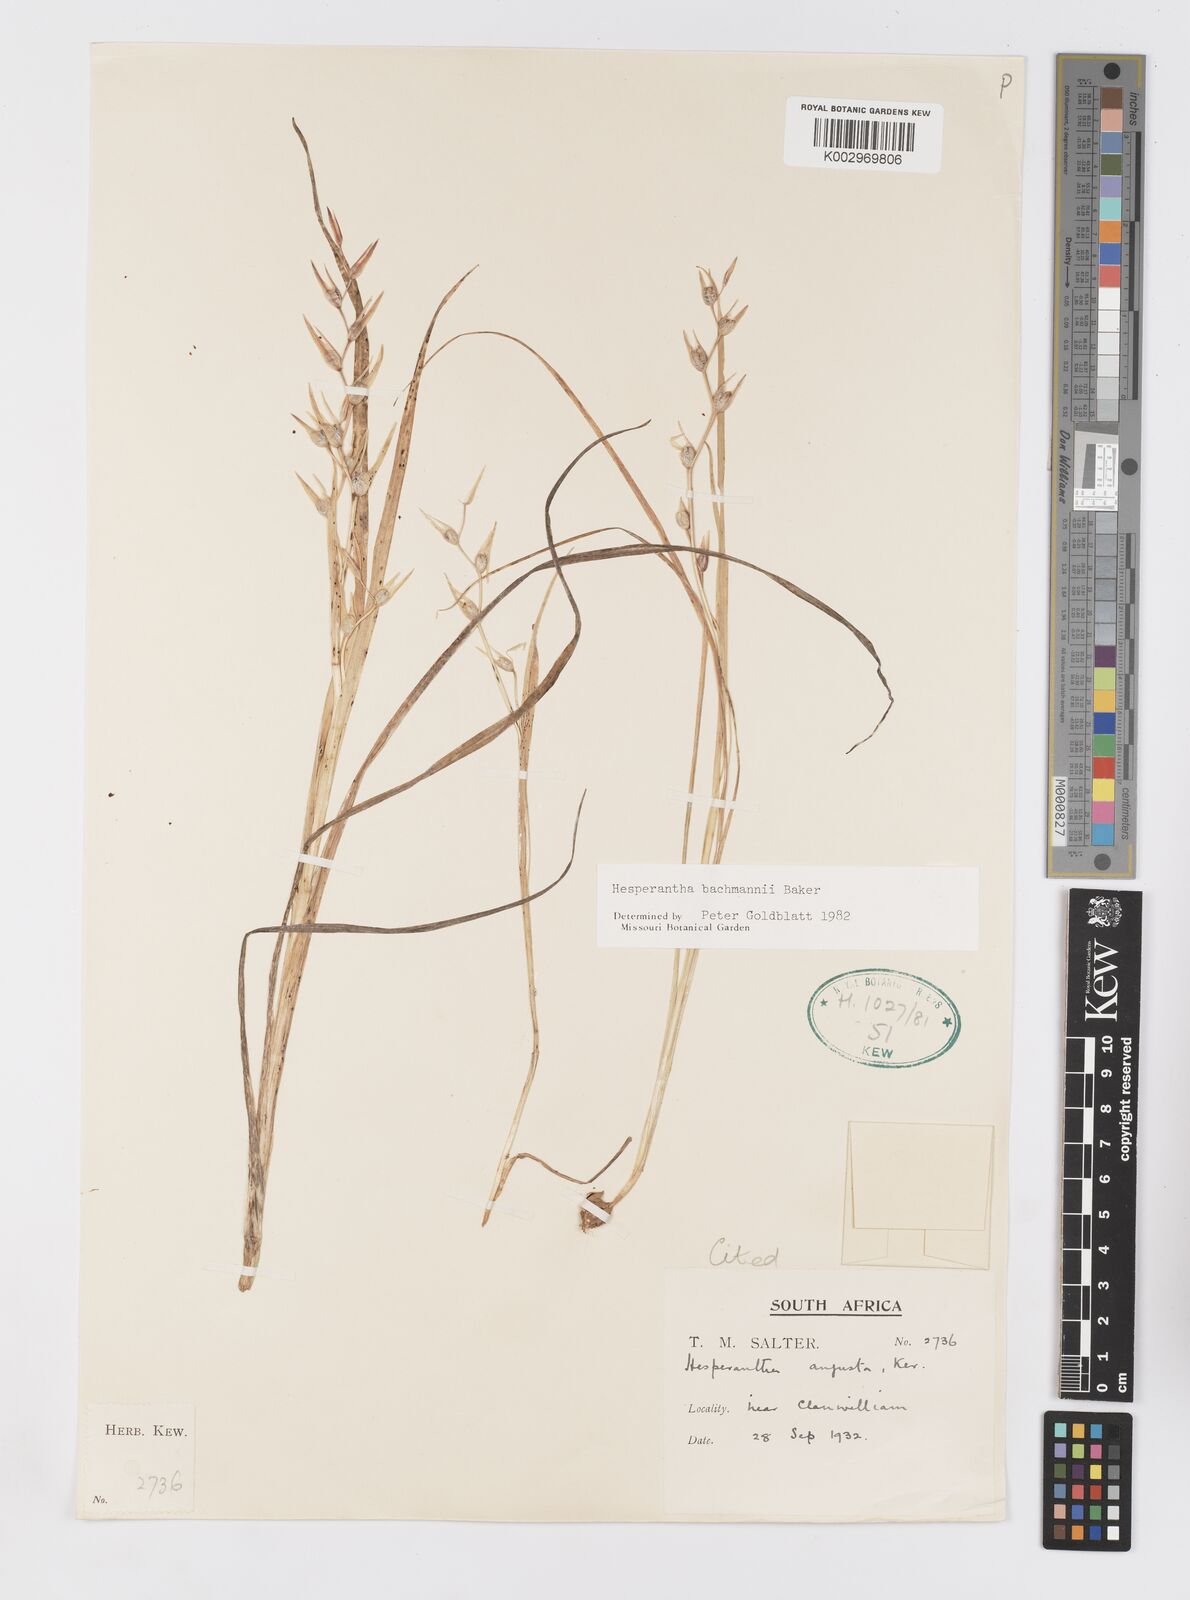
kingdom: Plantae
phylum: Tracheophyta
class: Liliopsida
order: Asparagales
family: Iridaceae
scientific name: Iridaceae
